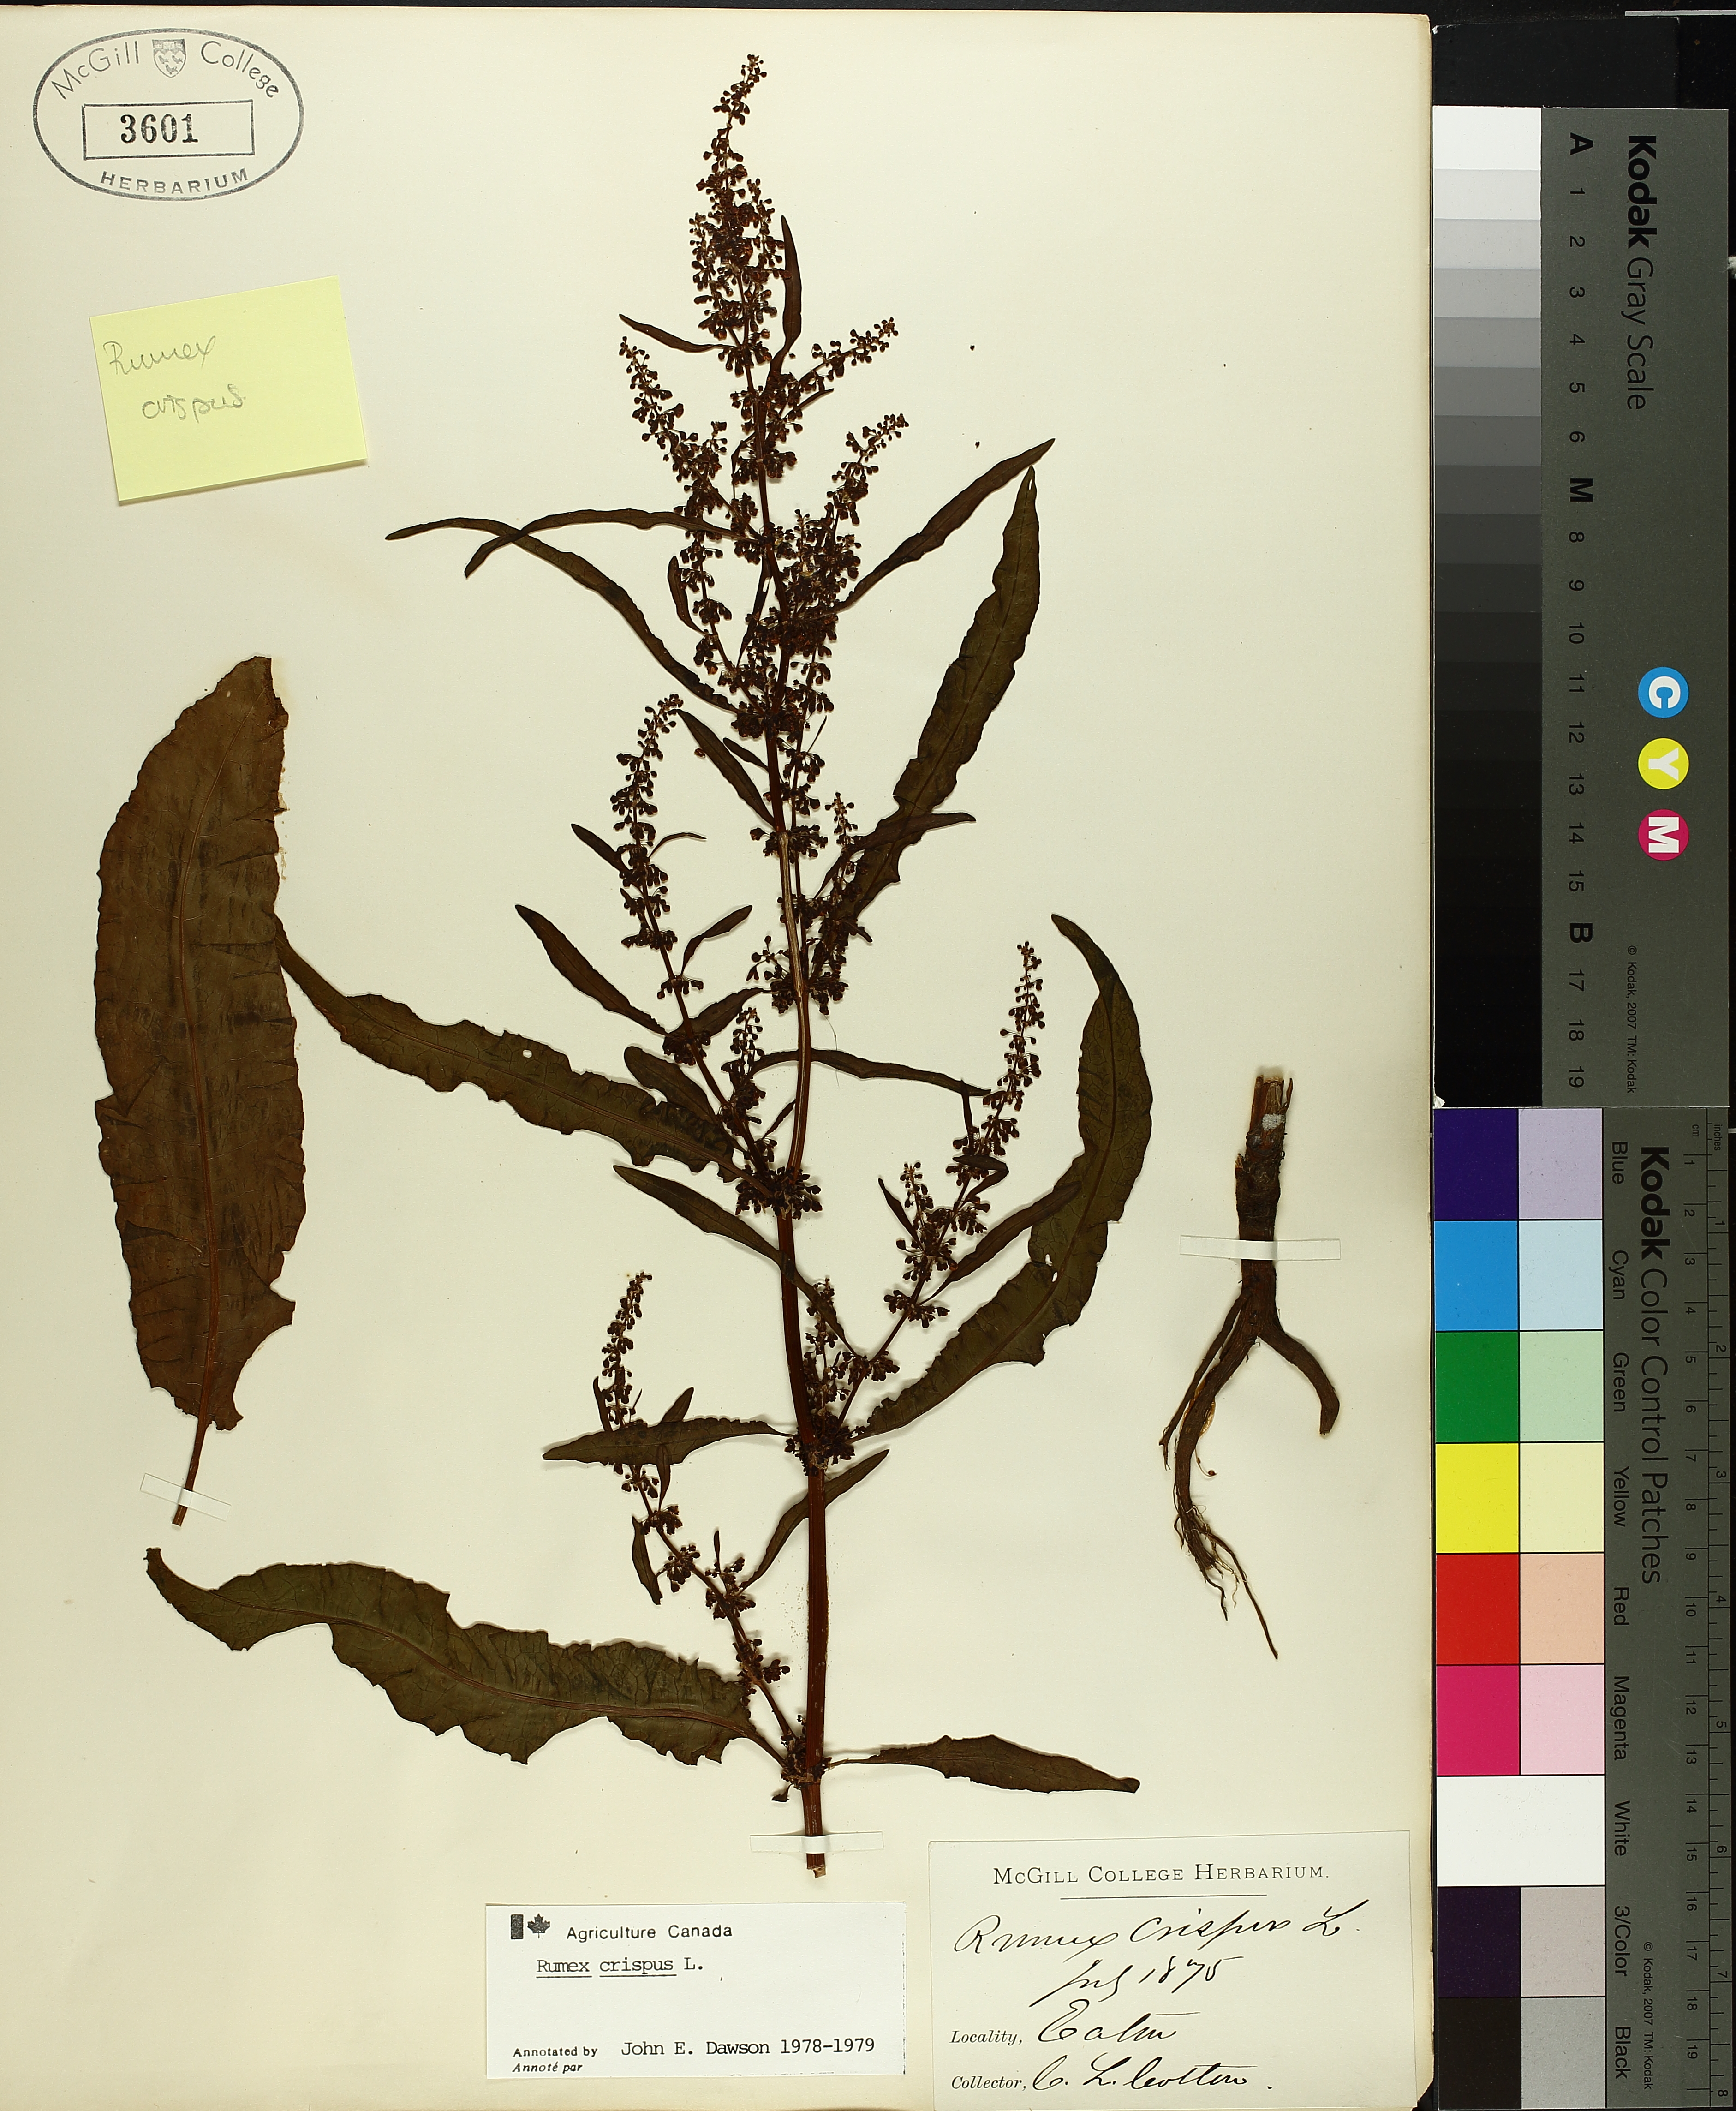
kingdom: Plantae
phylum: Tracheophyta
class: Magnoliopsida
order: Caryophyllales
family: Polygonaceae
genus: Rumex
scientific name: Rumex crispus
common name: Curled dock
